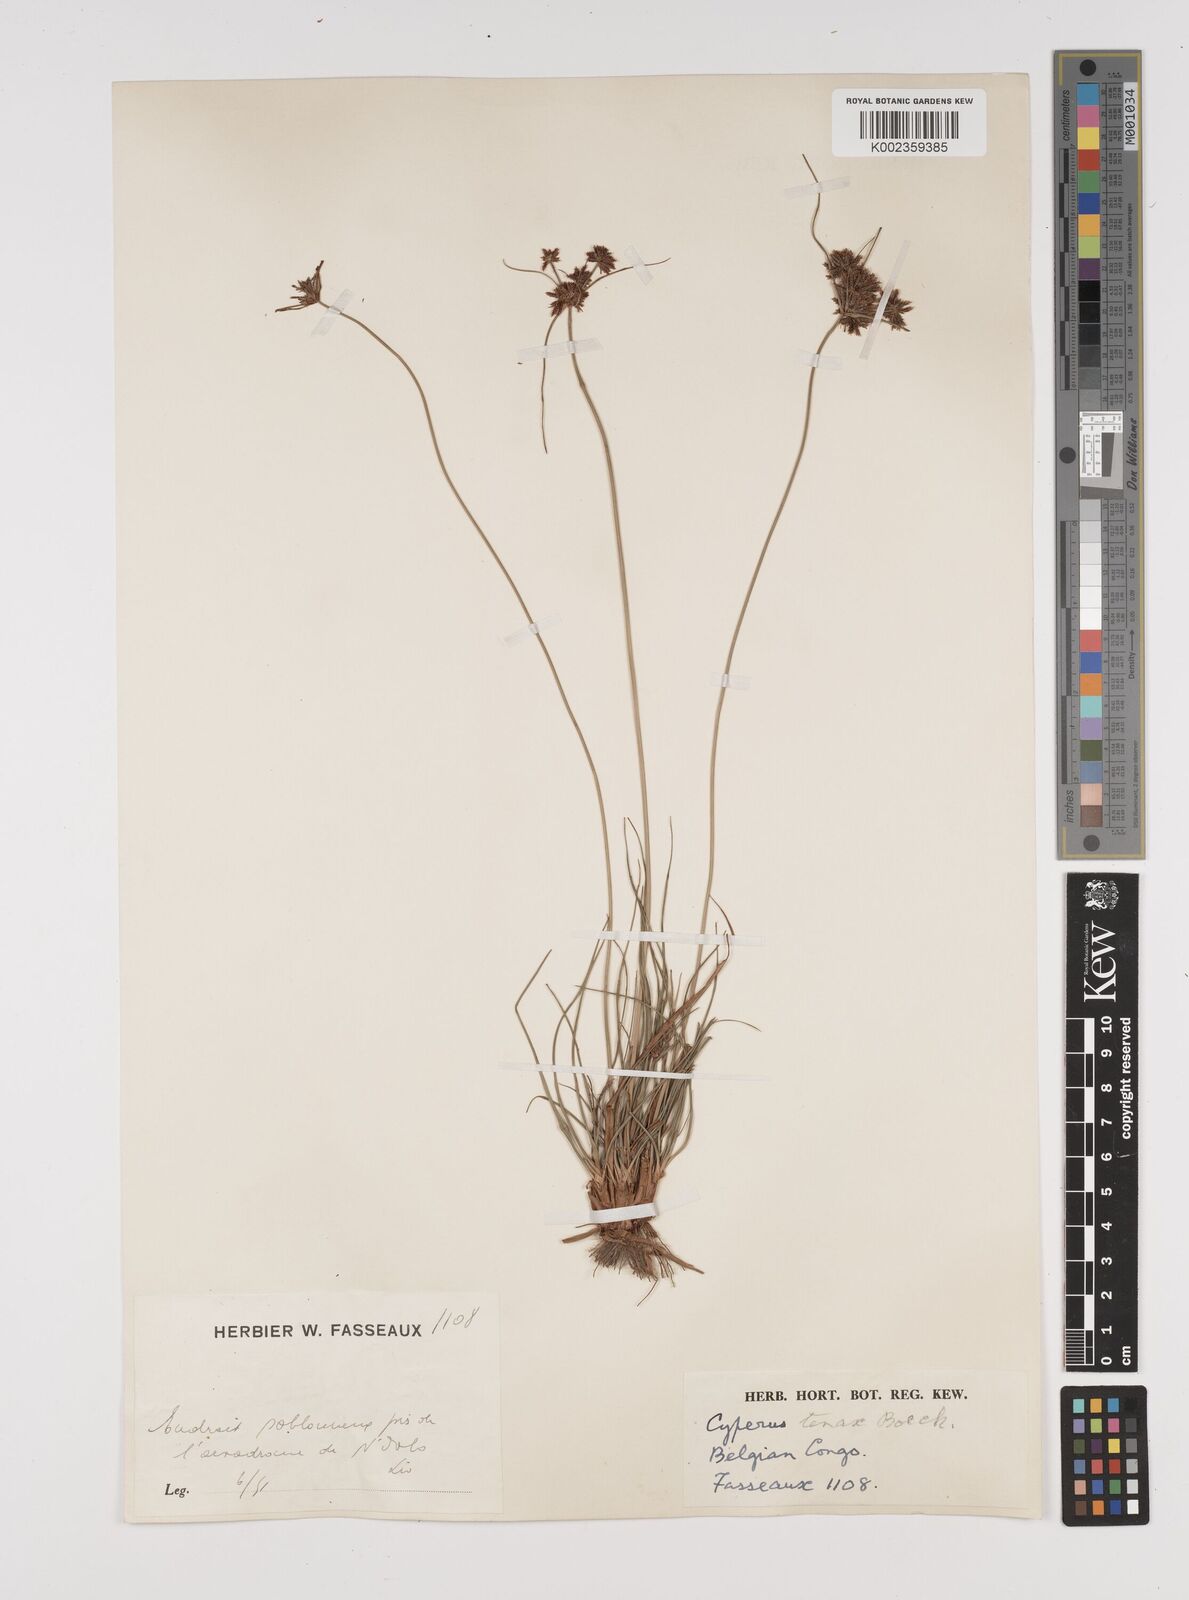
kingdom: Plantae
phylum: Tracheophyta
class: Liliopsida
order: Poales
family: Cyperaceae
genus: Cyperus
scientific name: Cyperus tenax
